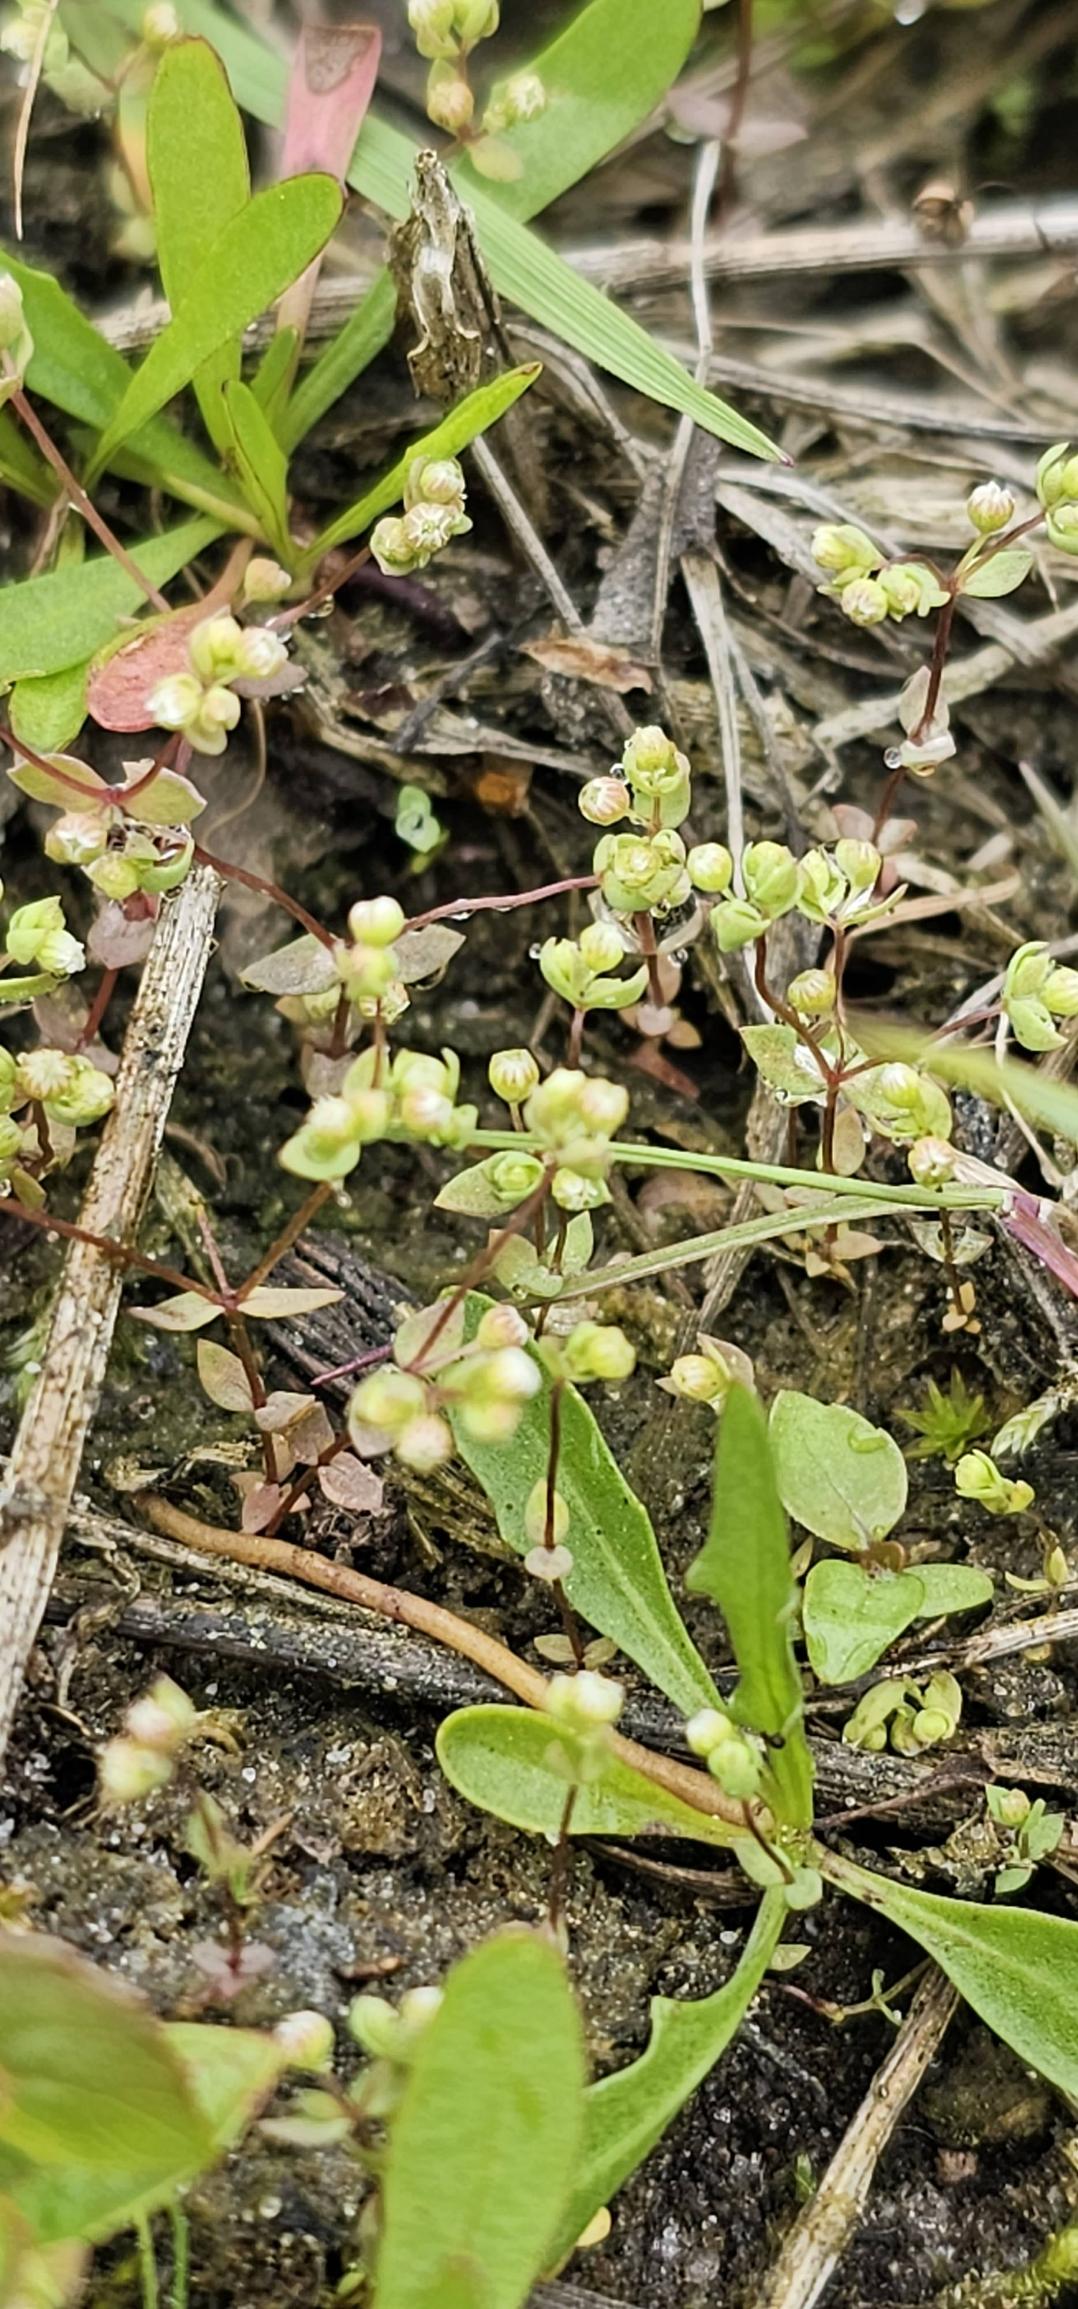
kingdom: Plantae
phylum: Tracheophyta
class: Magnoliopsida
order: Malpighiales
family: Linaceae
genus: Radiola
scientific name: Radiola linoides
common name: Tusindfrø
